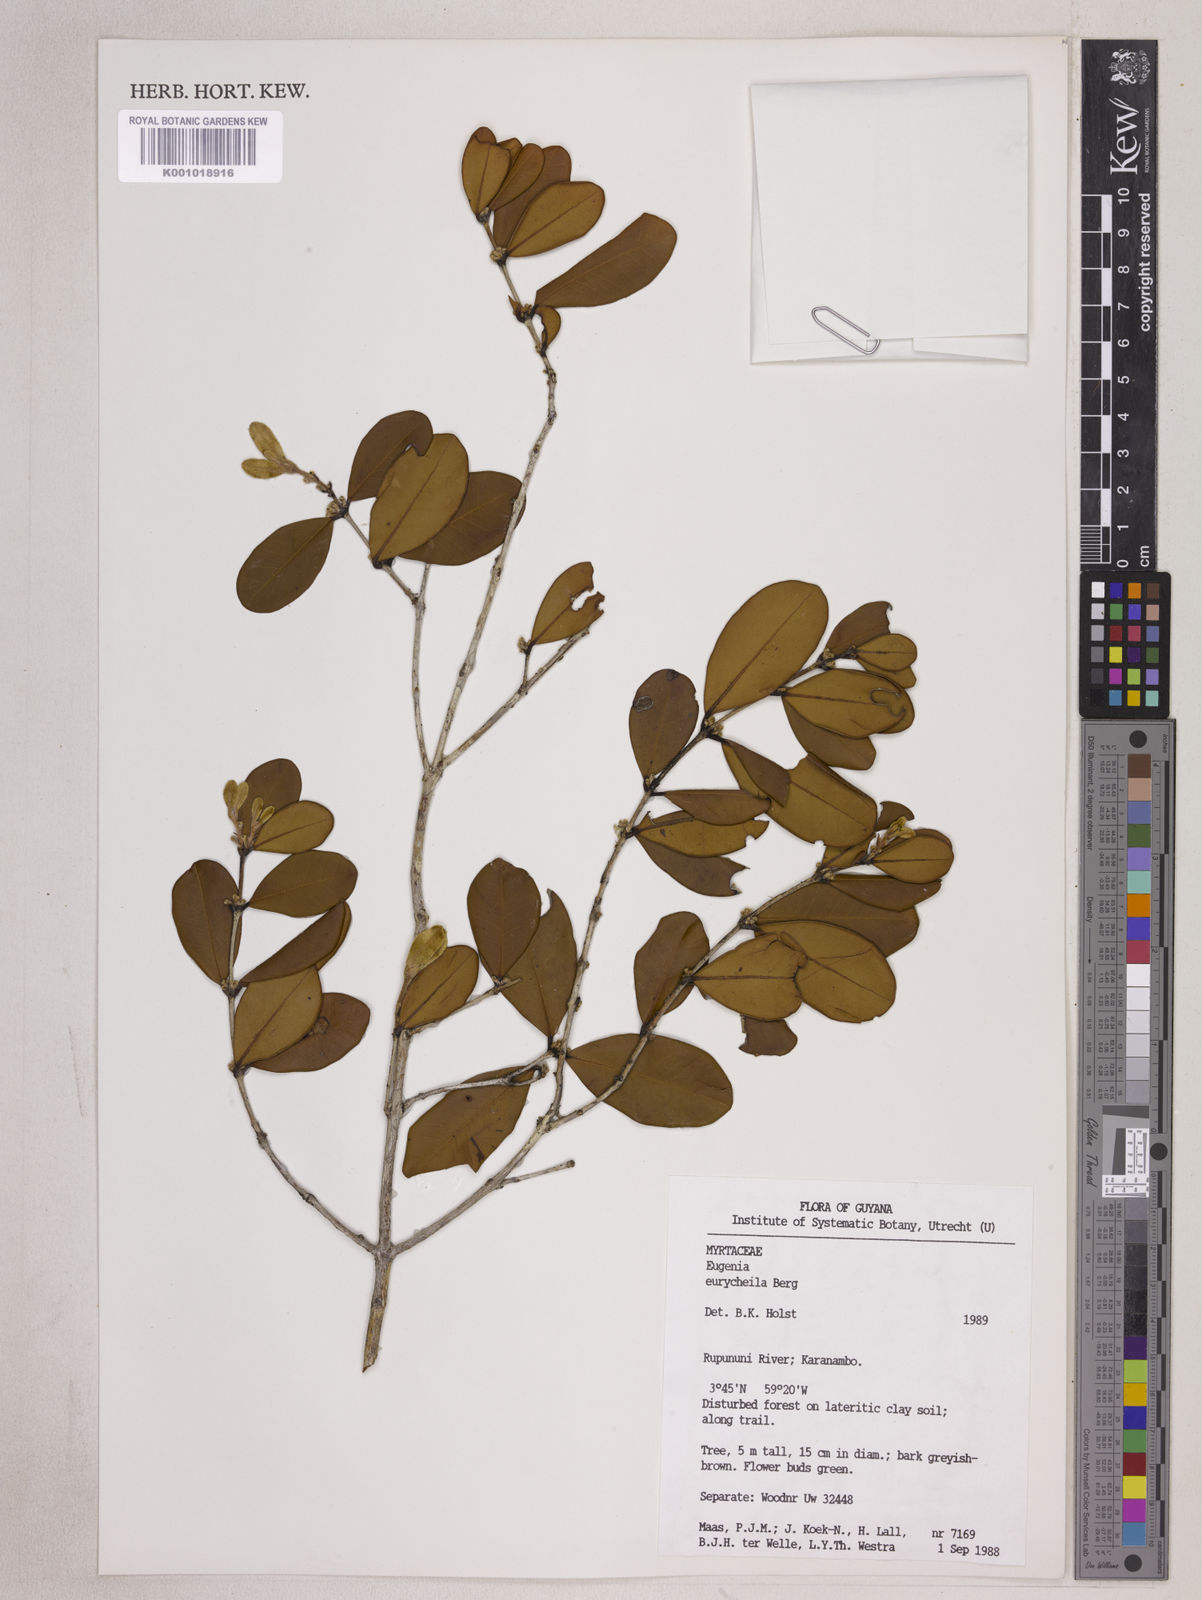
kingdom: Plantae
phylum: Tracheophyta
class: Magnoliopsida
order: Myrtales
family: Myrtaceae
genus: Eugenia
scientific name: Eugenia eurycheila
